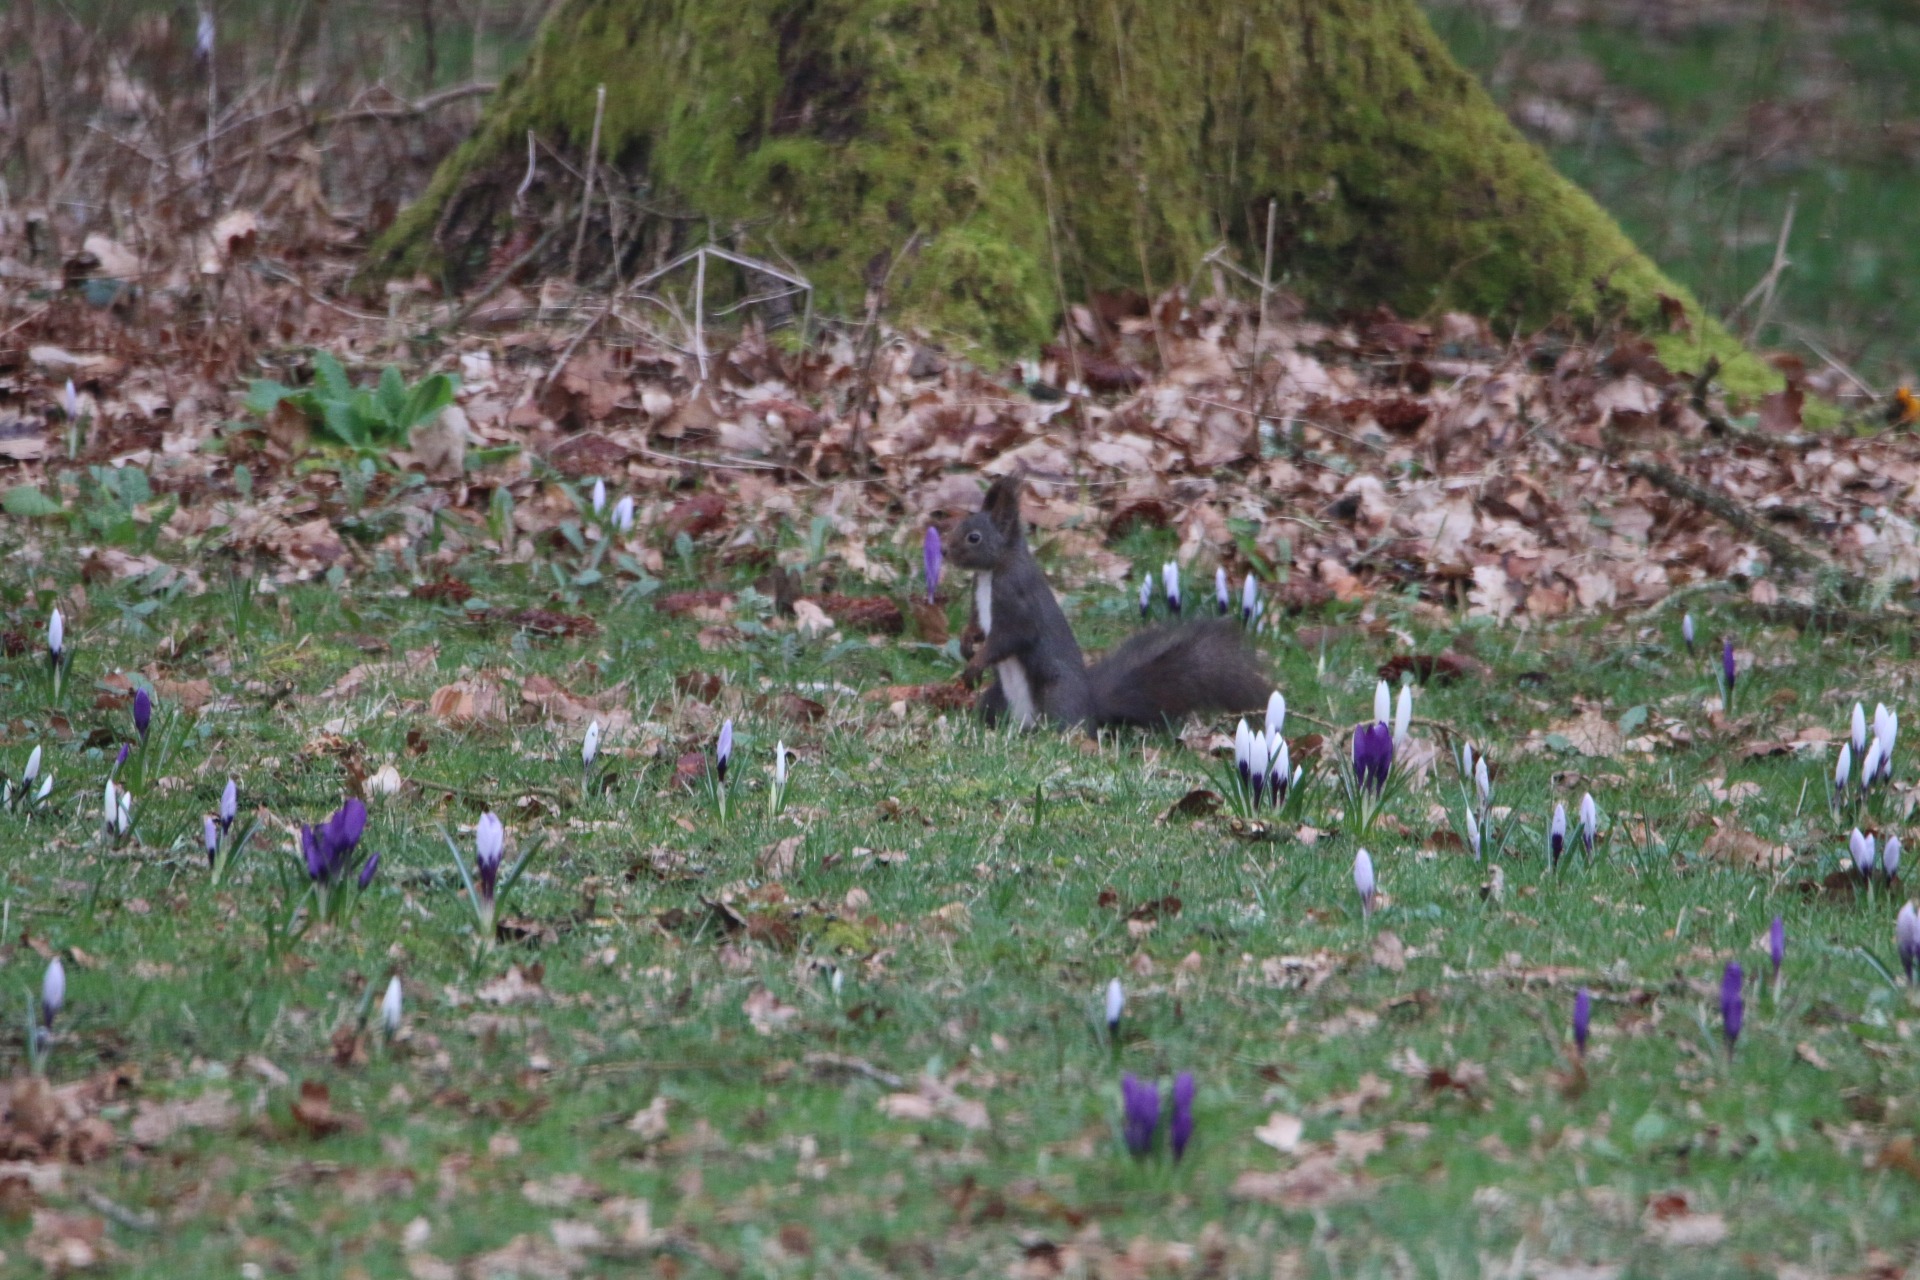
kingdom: Animalia
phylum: Chordata
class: Mammalia
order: Rodentia
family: Sciuridae
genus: Sciurus
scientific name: Sciurus vulgaris
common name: Egern
